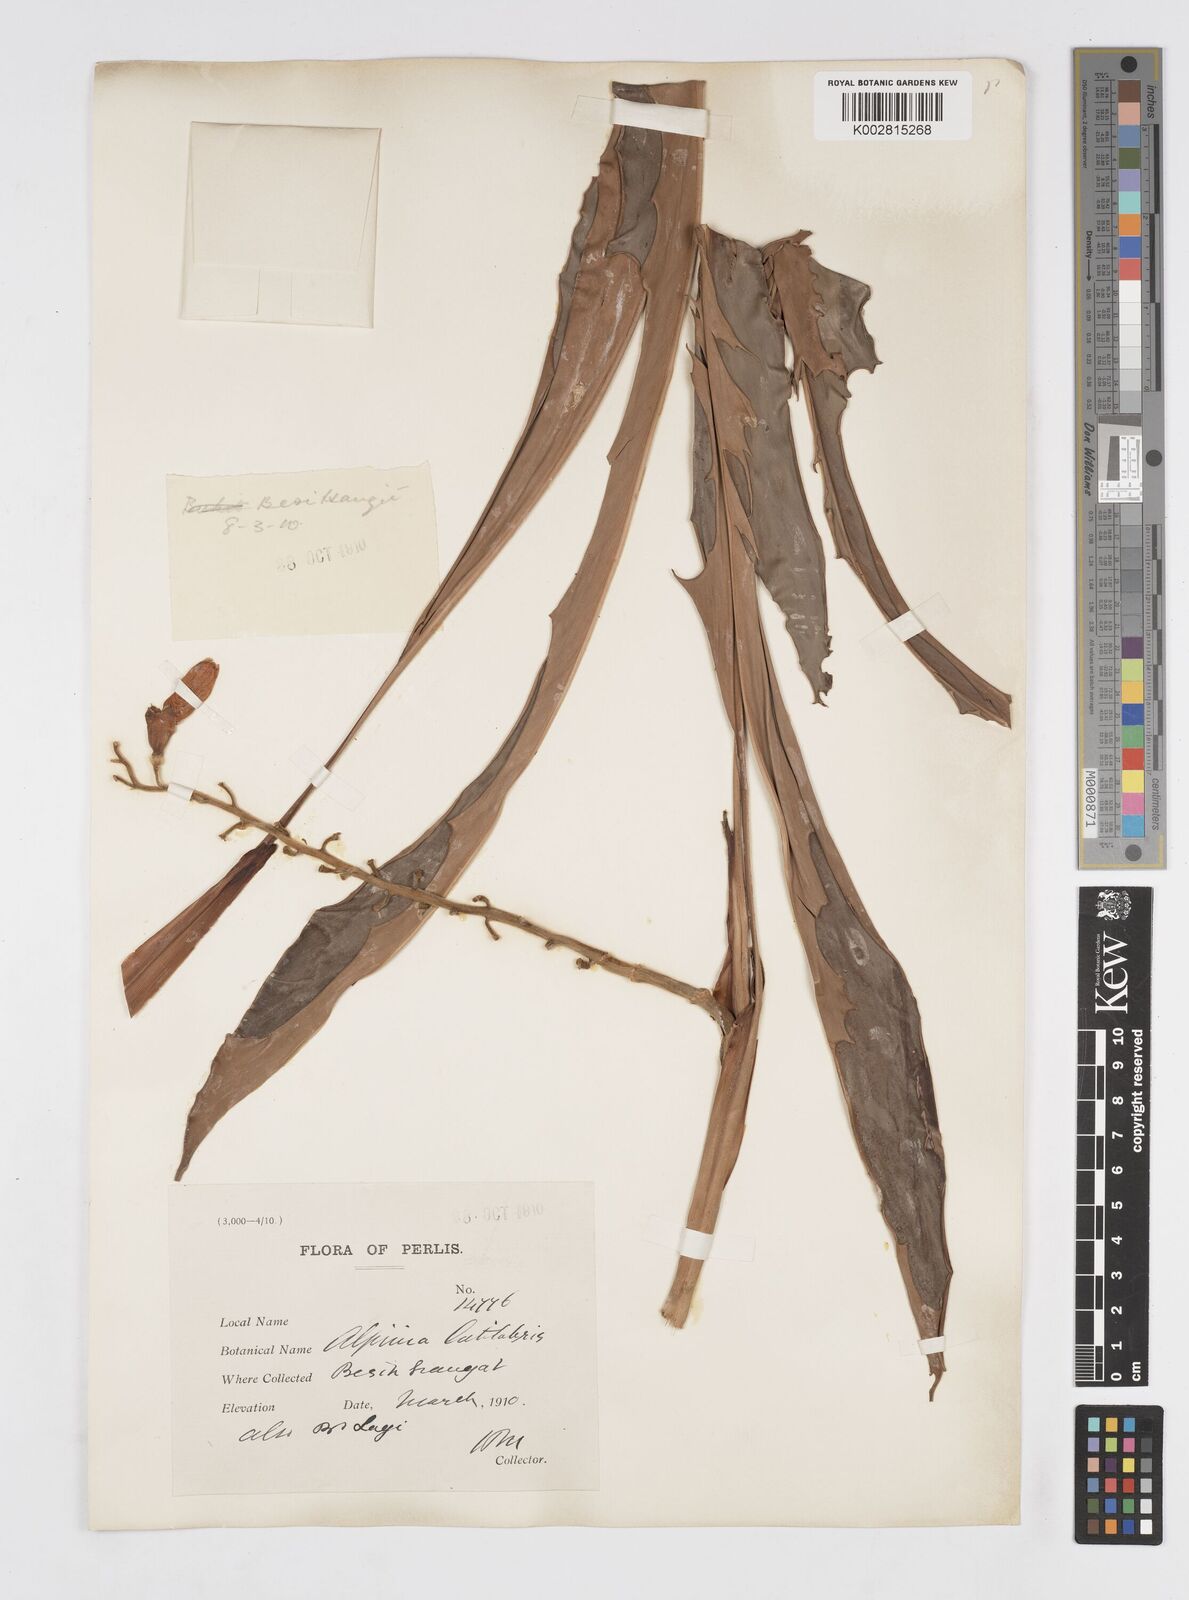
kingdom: Plantae
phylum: Tracheophyta
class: Liliopsida
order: Zingiberales
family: Zingiberaceae
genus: Alpinia
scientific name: Alpinia latilabris
